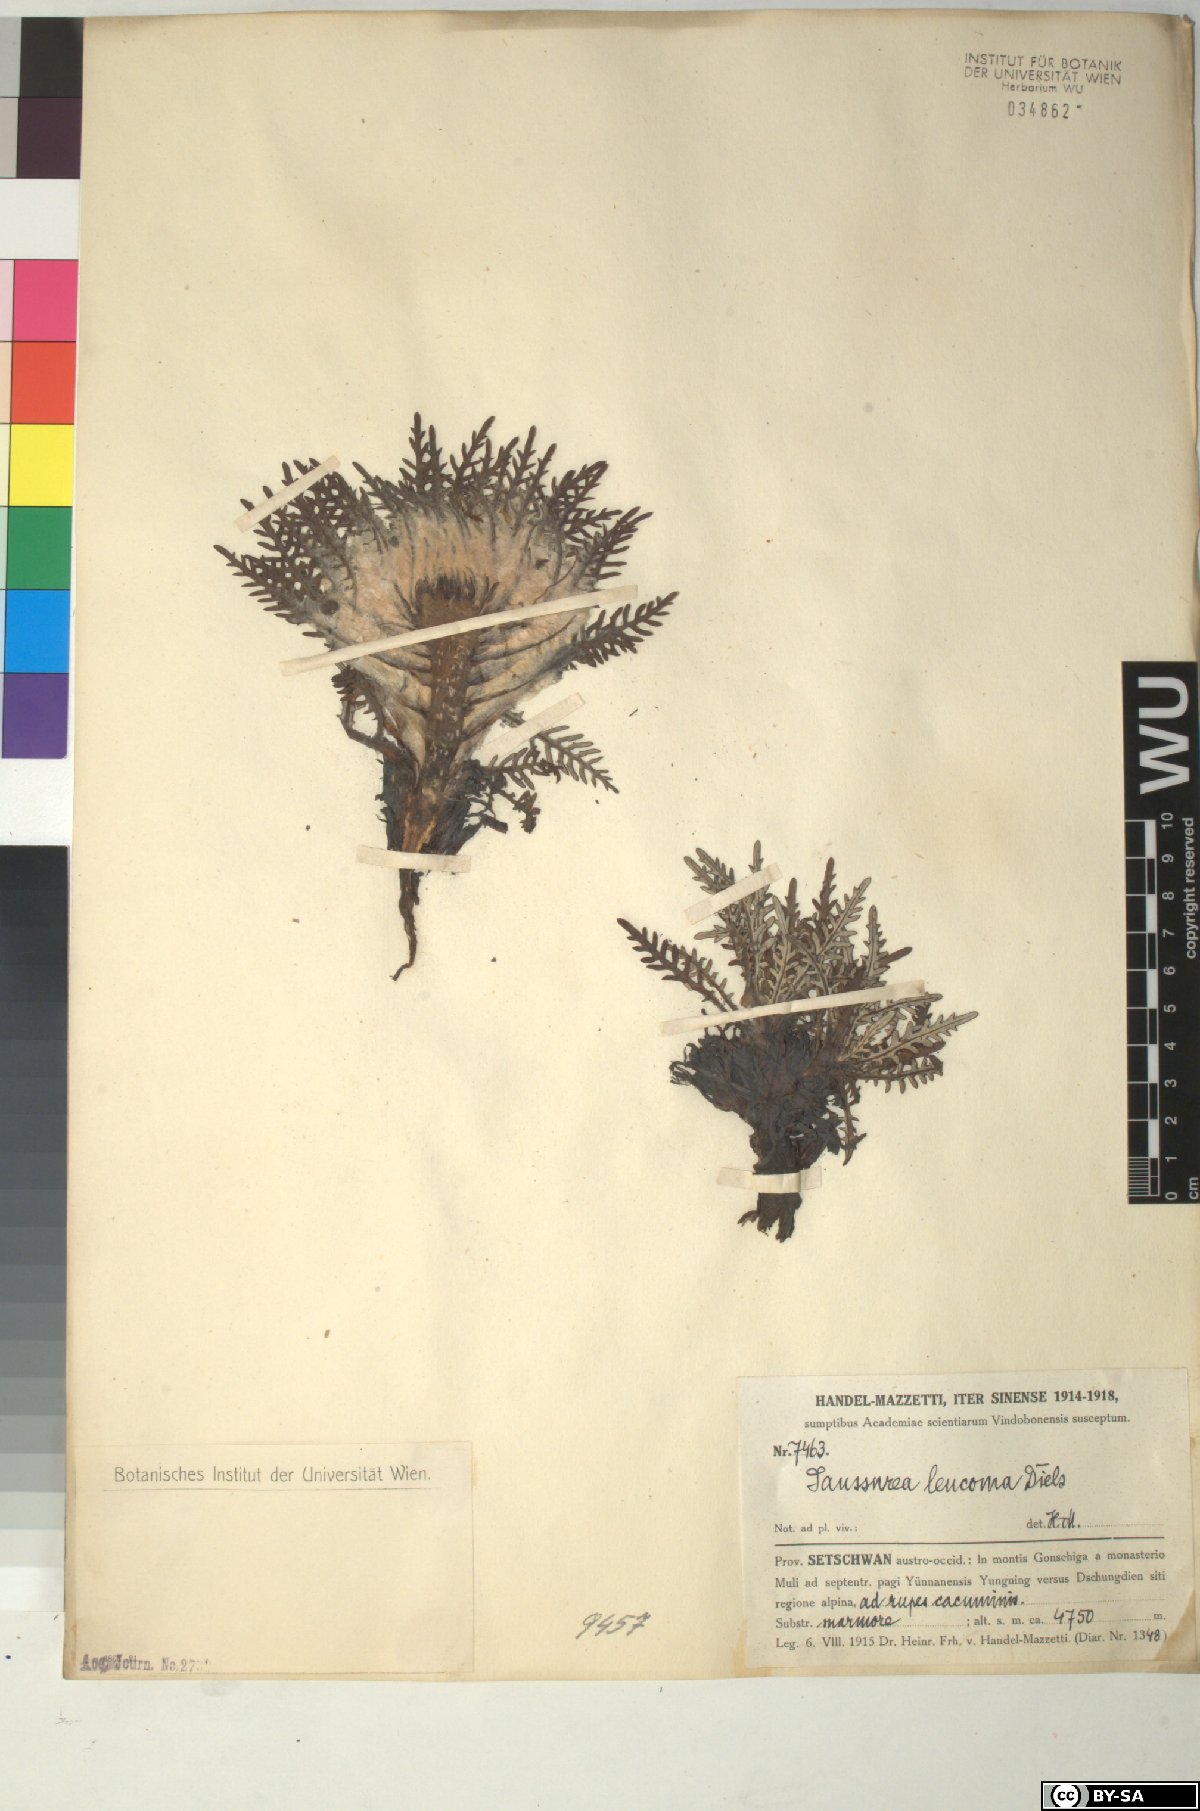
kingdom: Plantae
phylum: Tracheophyta
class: Magnoliopsida
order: Asterales
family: Asteraceae
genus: Saussurea
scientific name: Saussurea leucoma
